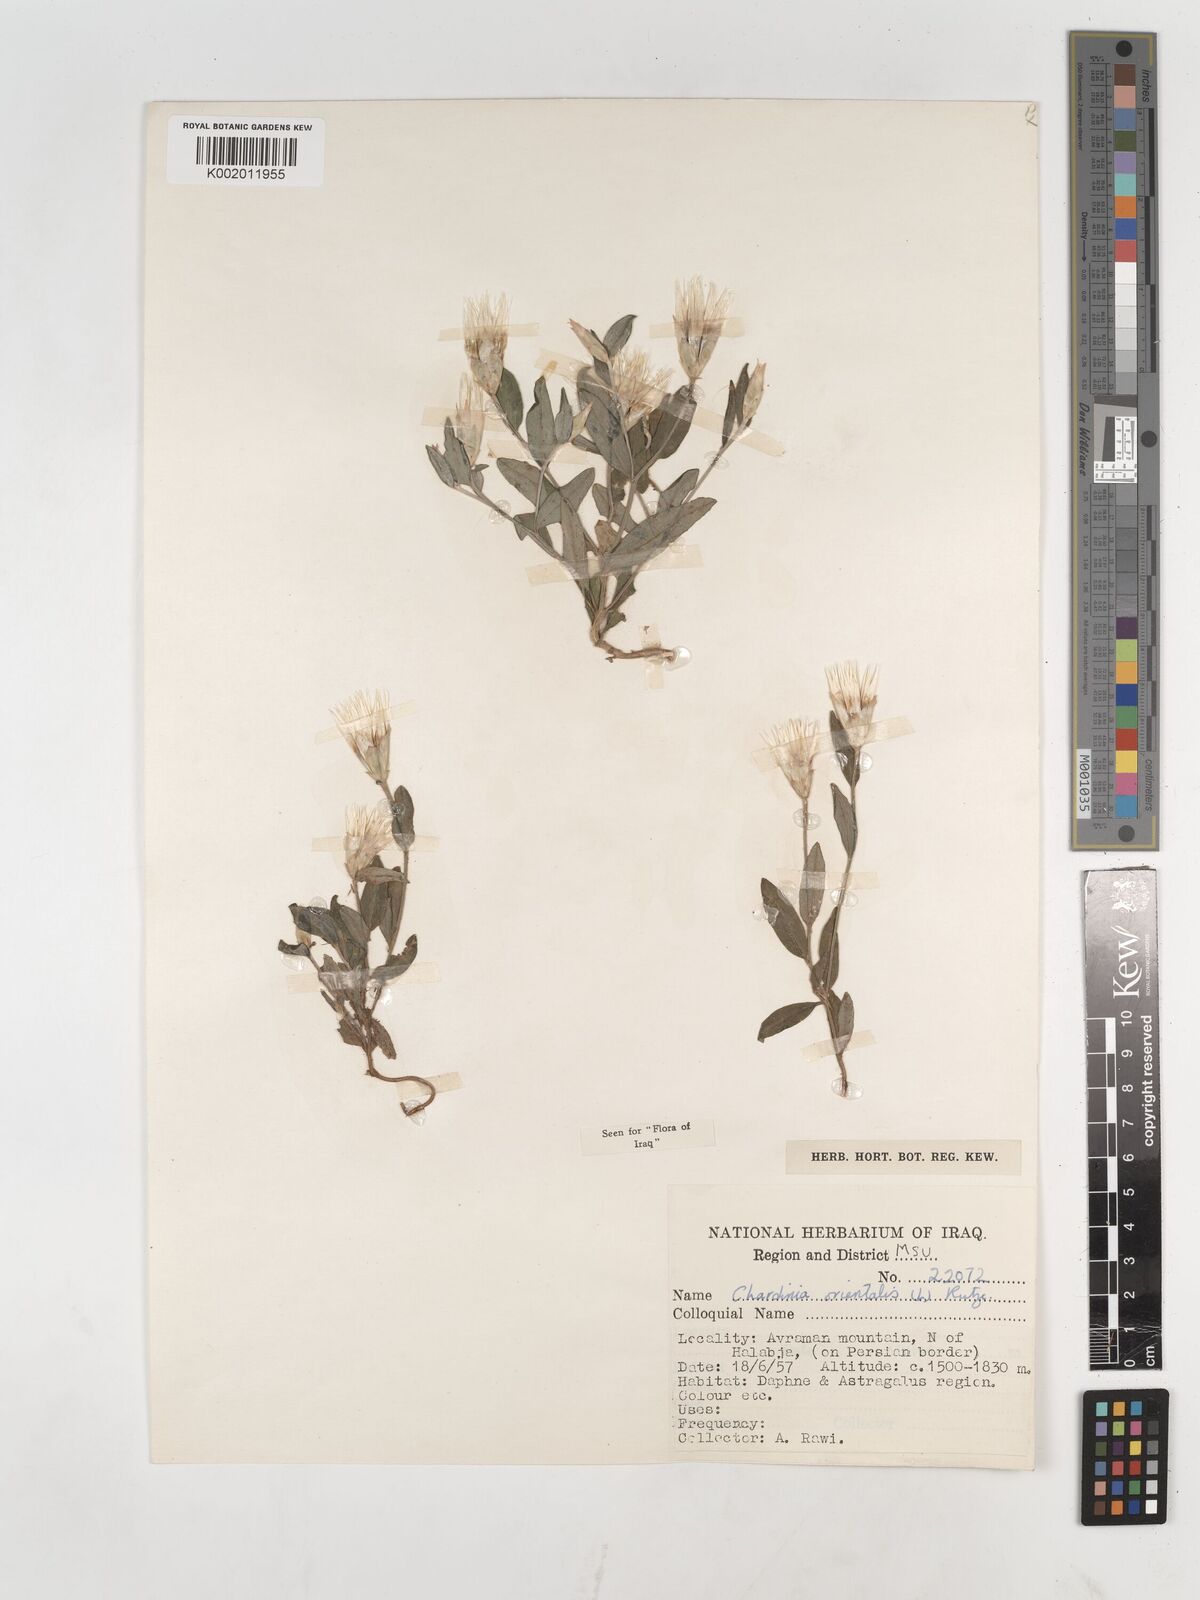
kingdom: Plantae
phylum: Tracheophyta
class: Magnoliopsida
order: Asterales
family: Asteraceae
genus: Chardinia
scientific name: Chardinia orientalis
